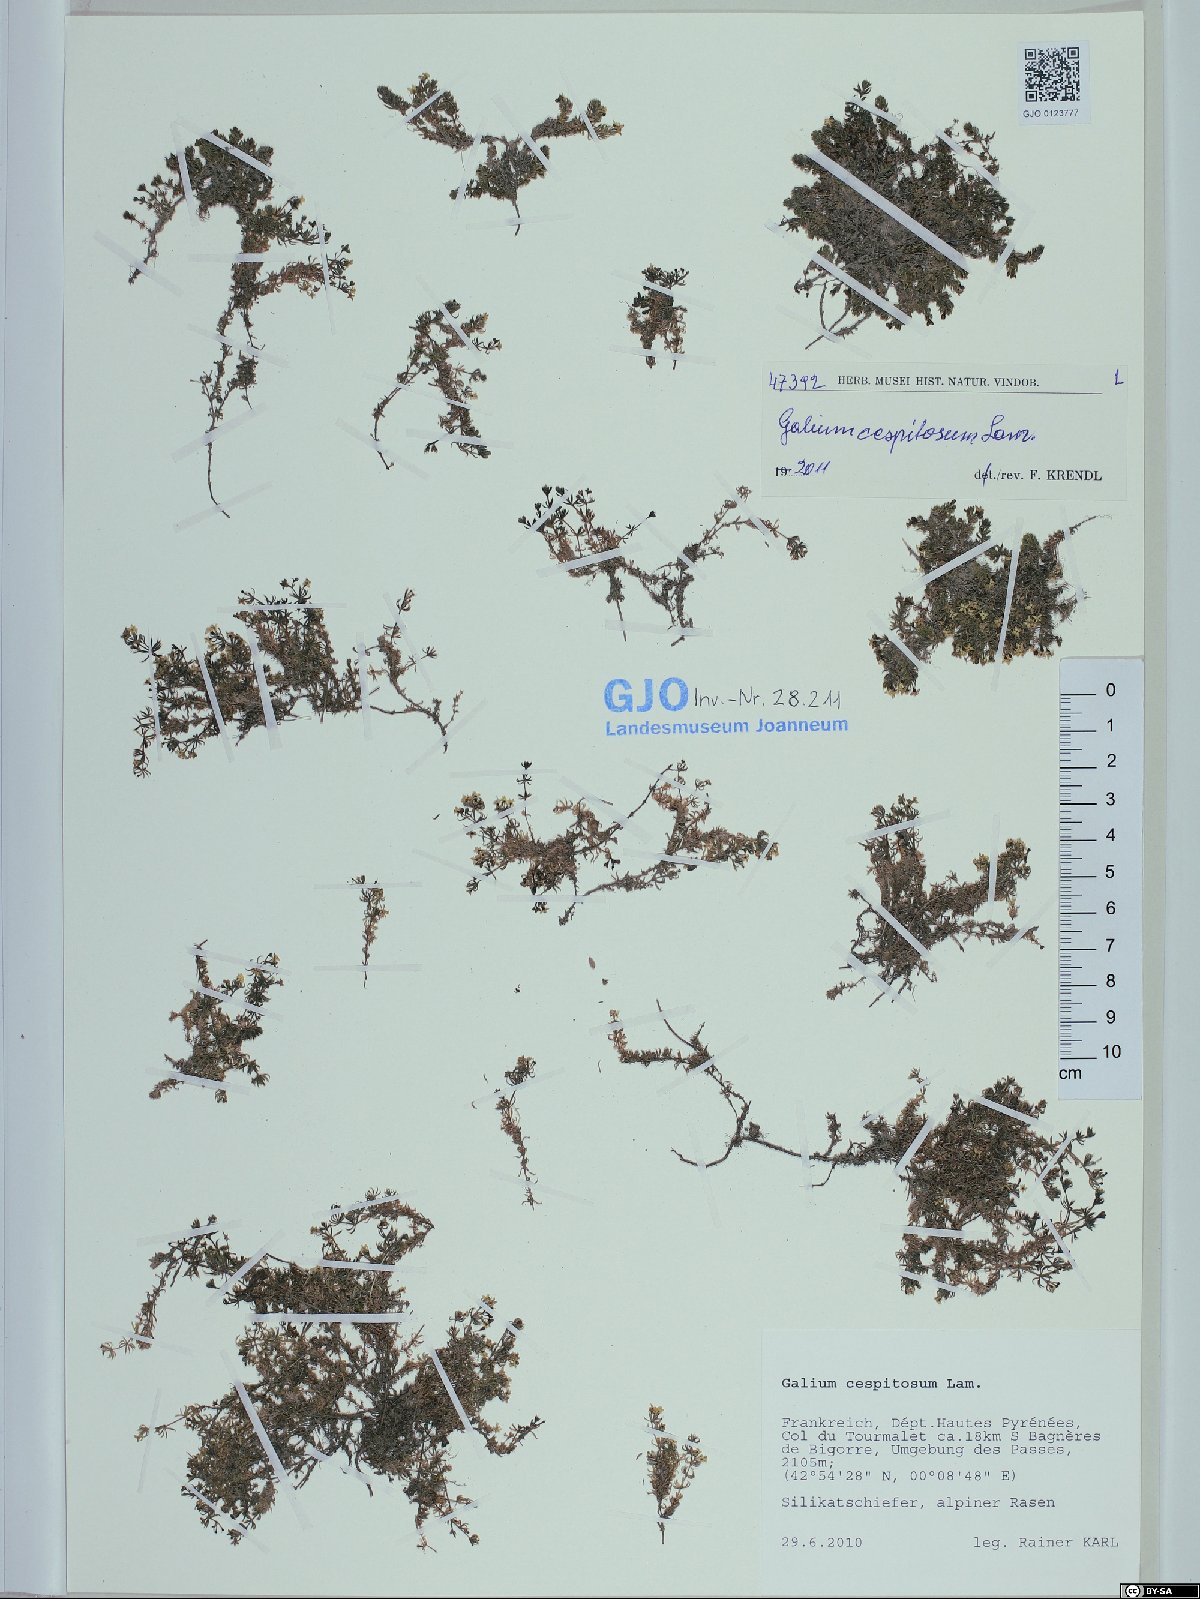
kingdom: Plantae
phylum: Tracheophyta
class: Magnoliopsida
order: Gentianales
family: Rubiaceae
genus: Galium
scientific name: Galium cespitosum
